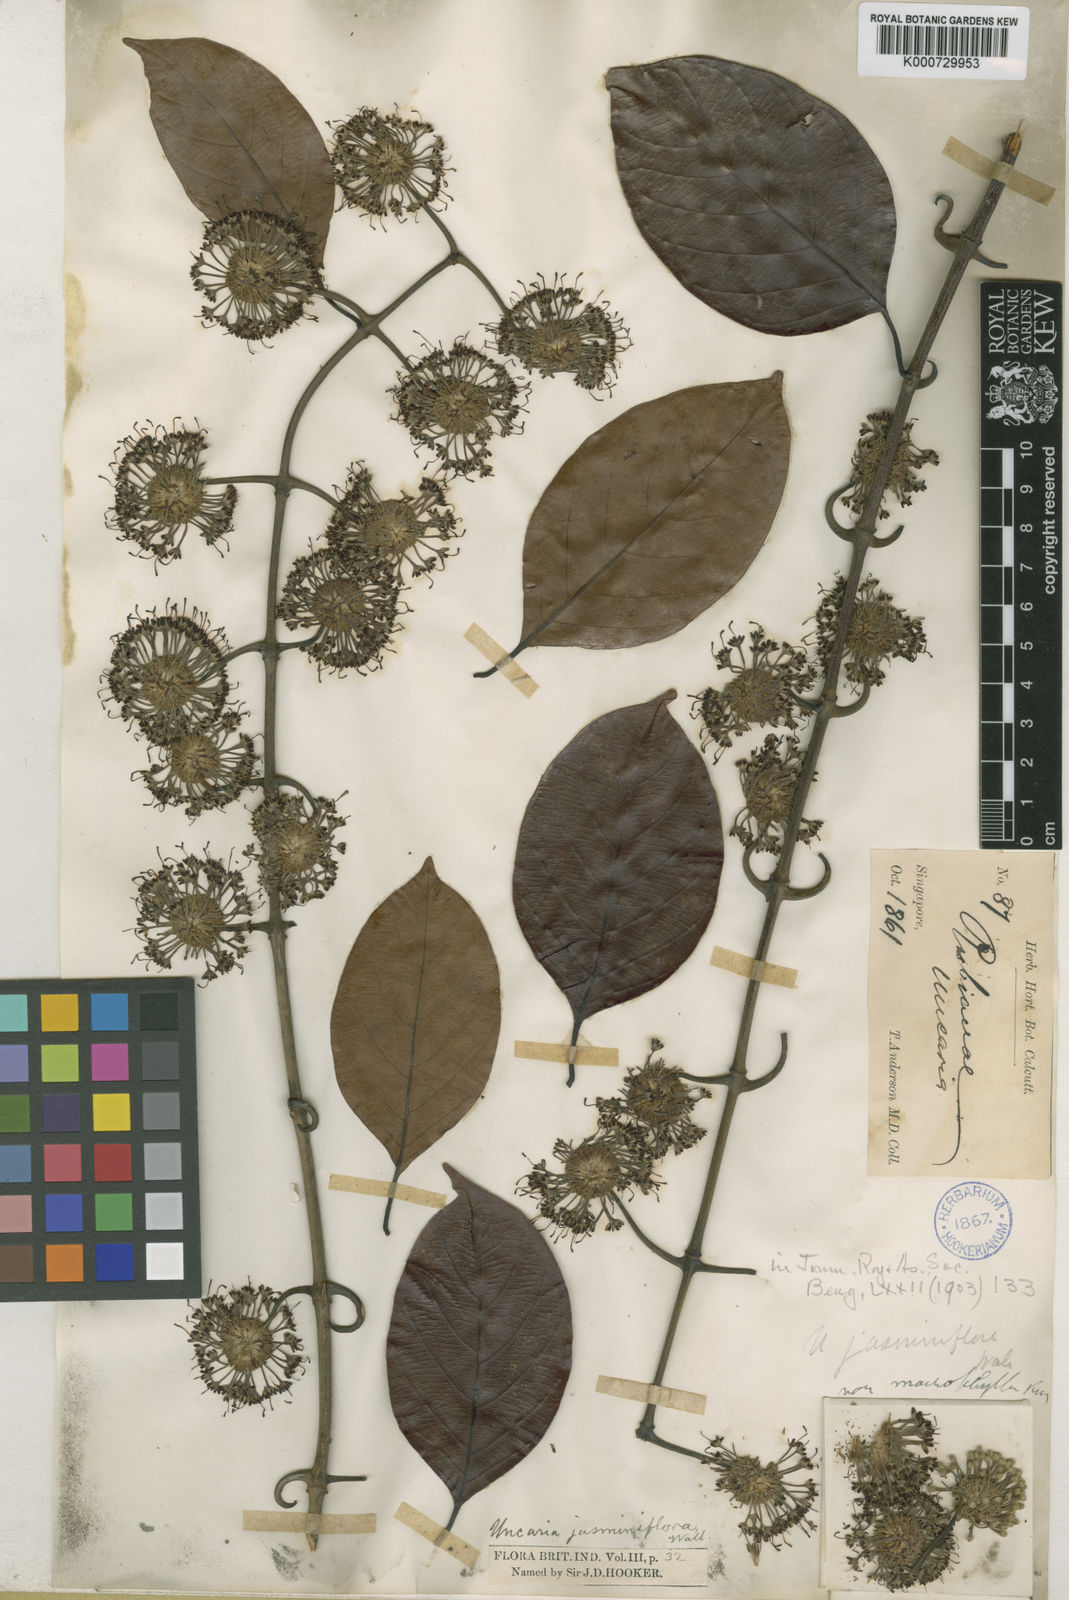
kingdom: Plantae
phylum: Tracheophyta
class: Magnoliopsida
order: Gentianales
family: Rubiaceae
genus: Uncaria
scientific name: Uncaria callophylla
